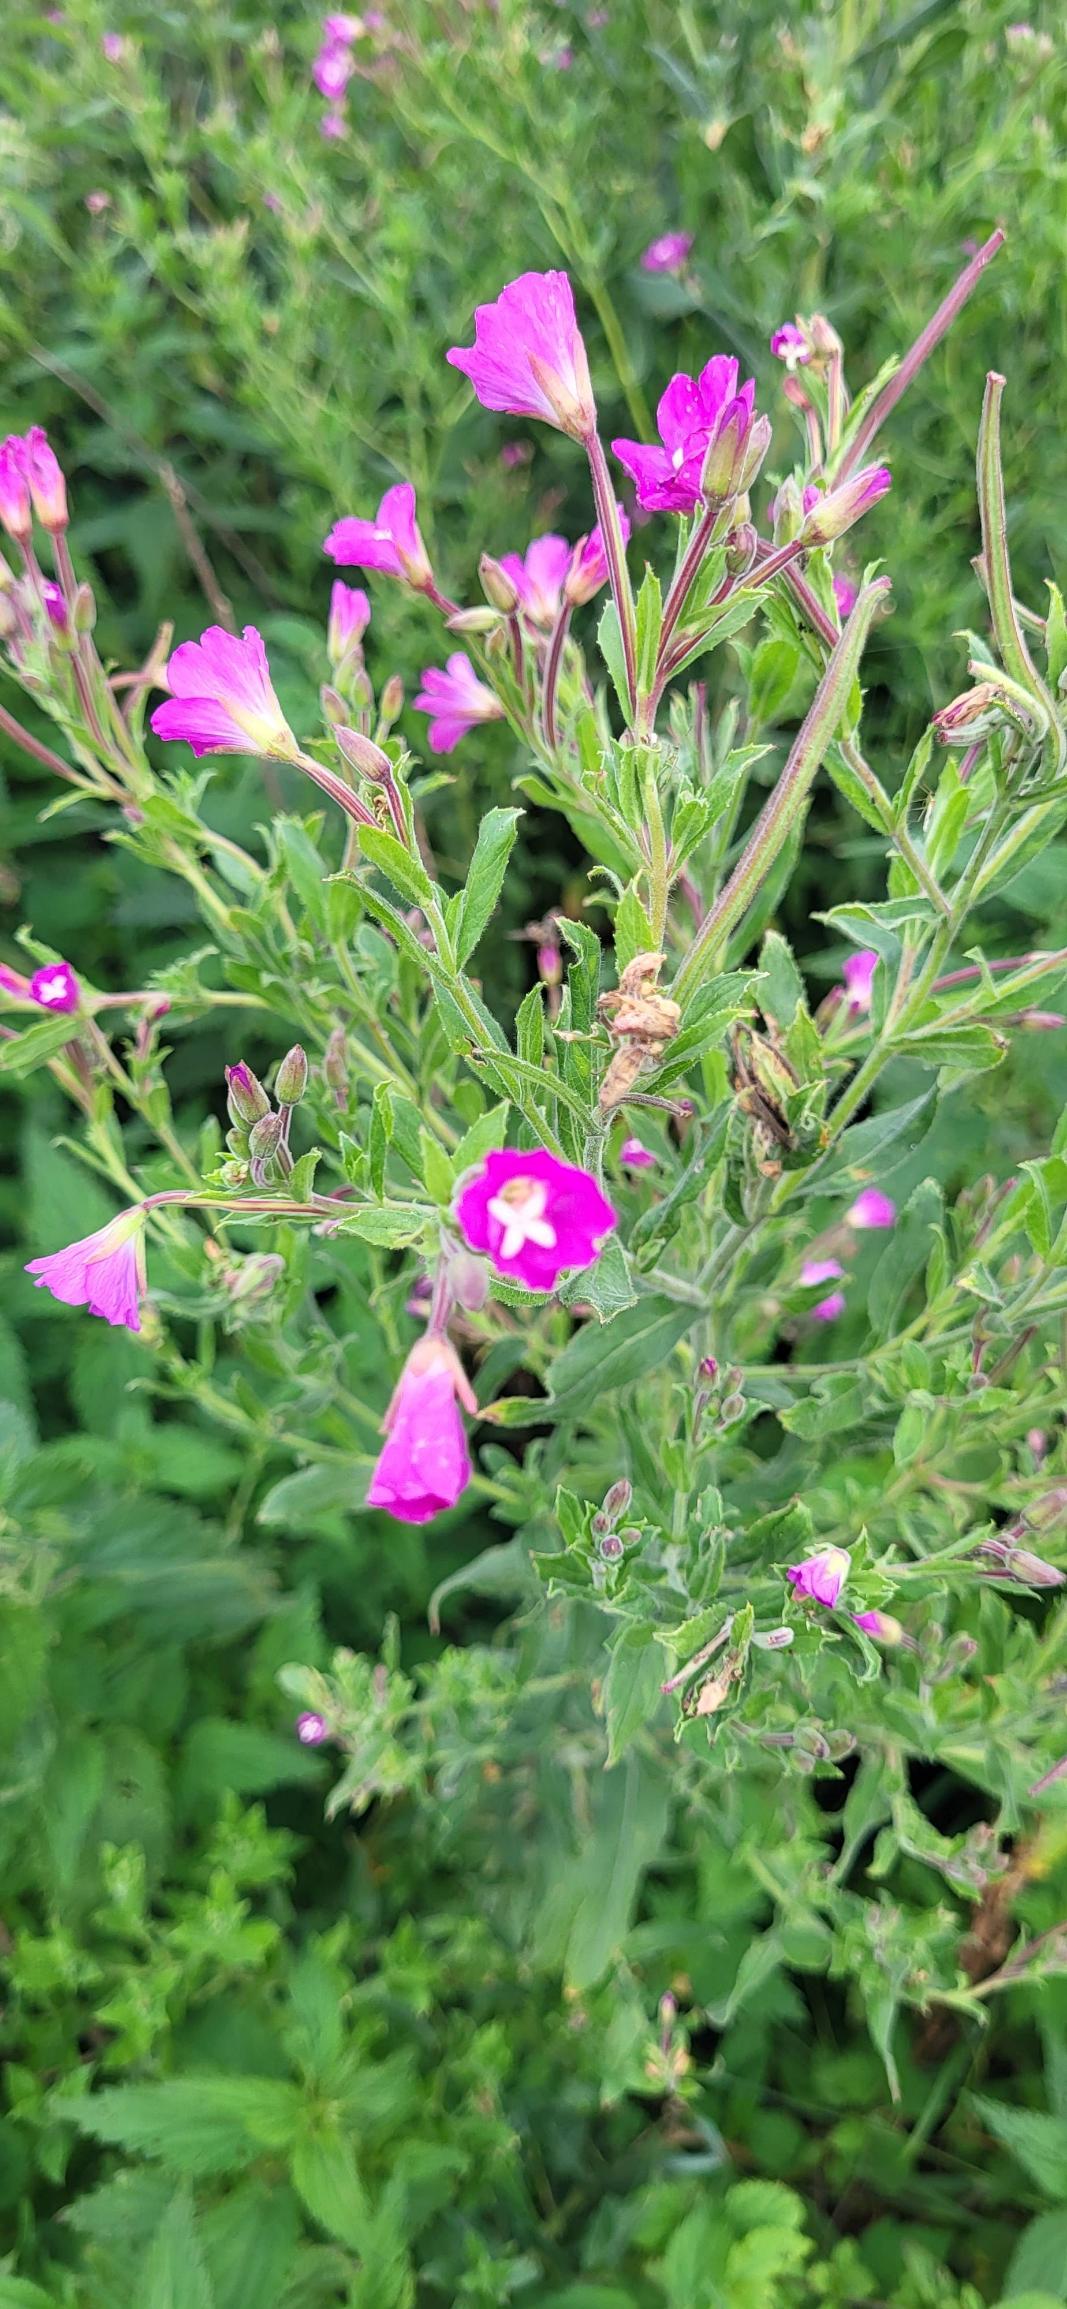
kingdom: Plantae
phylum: Tracheophyta
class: Magnoliopsida
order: Myrtales
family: Onagraceae
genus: Epilobium
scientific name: Epilobium hirsutum
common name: Lådden dueurt
